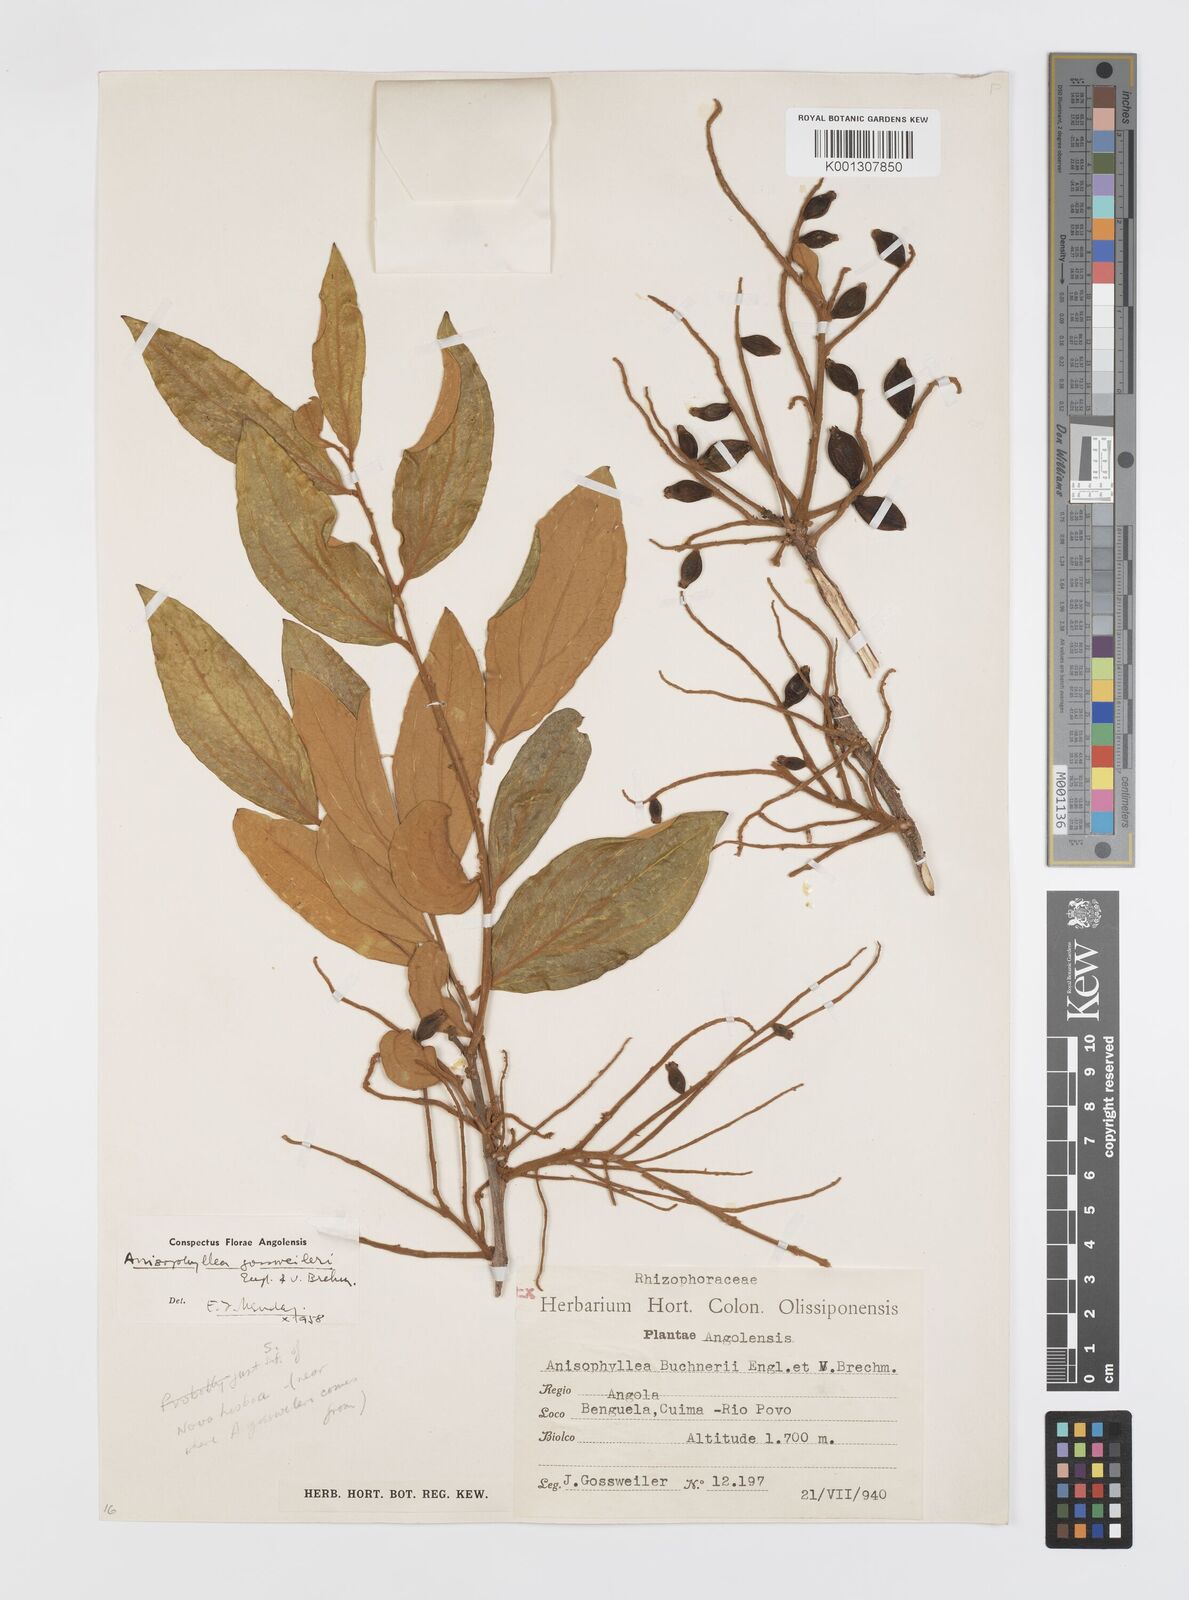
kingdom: Plantae
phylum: Tracheophyta
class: Magnoliopsida
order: Cucurbitales
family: Anisophylleaceae
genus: Anisophyllea
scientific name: Anisophyllea boehmii
